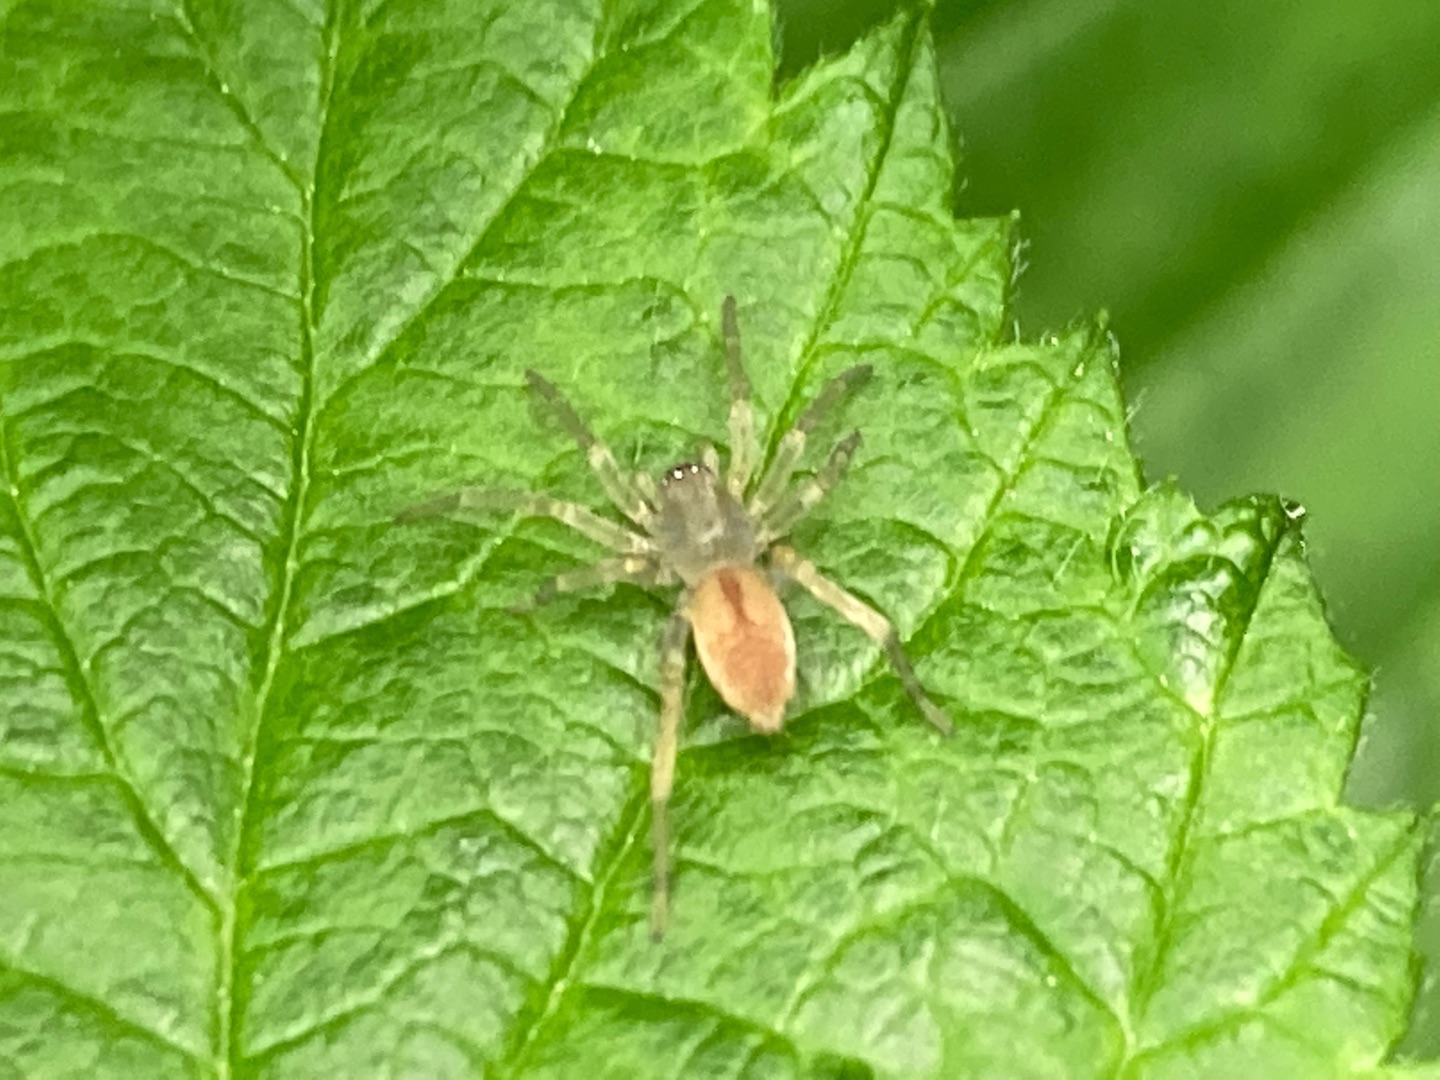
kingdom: Animalia
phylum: Arthropoda
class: Arachnida
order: Araneae
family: Clubionidae
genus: Clubiona
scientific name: Clubiona
